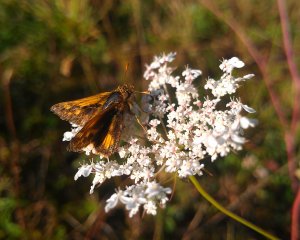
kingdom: Animalia
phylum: Arthropoda
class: Insecta
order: Lepidoptera
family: Hesperiidae
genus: Polites
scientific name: Polites coras
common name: Peck's Skipper
